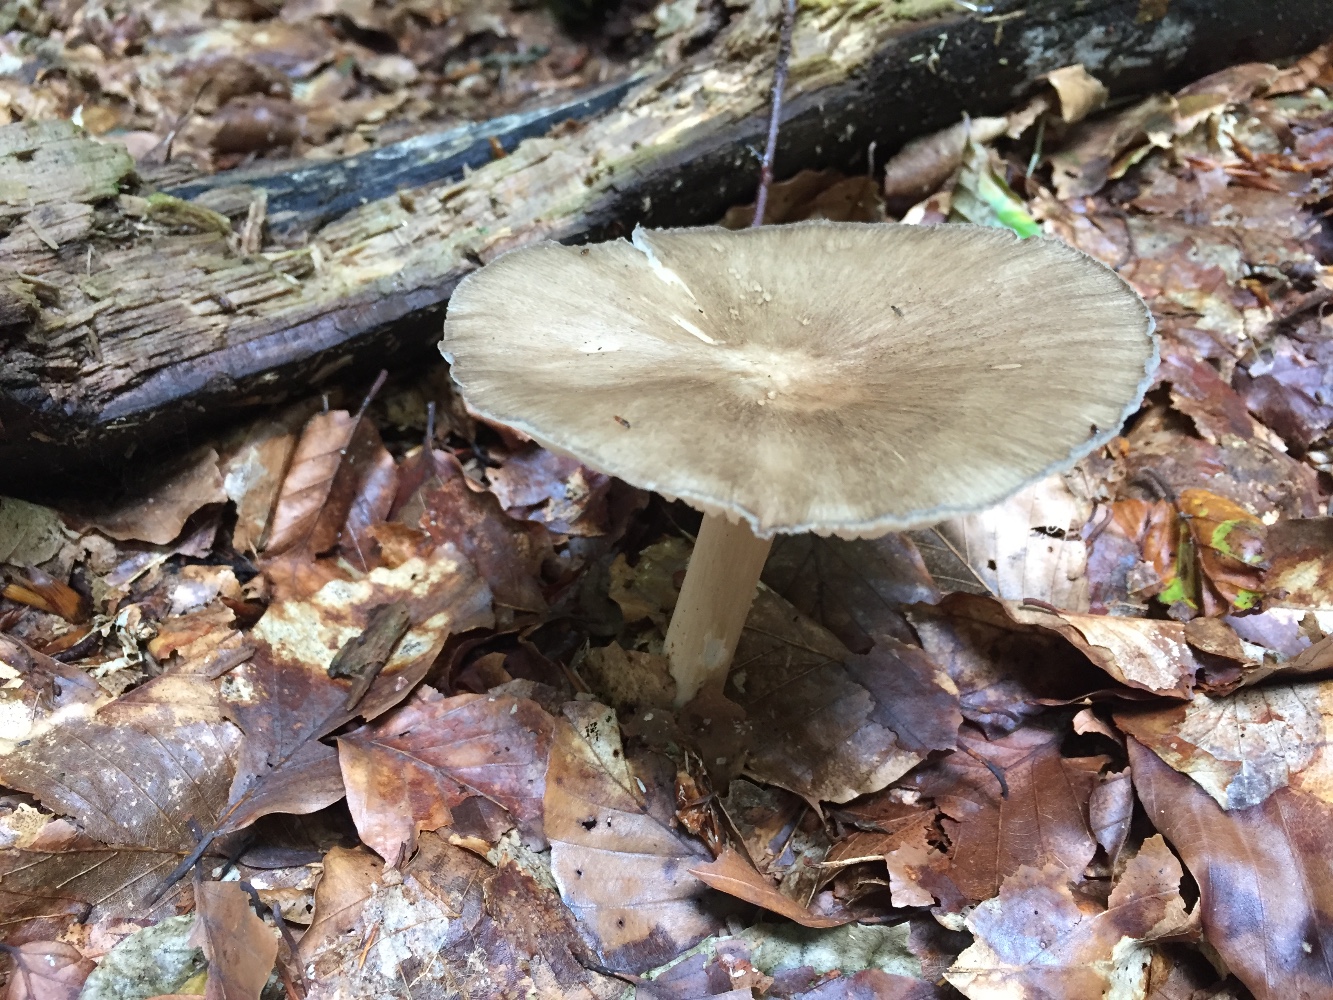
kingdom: Fungi
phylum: Basidiomycota
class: Agaricomycetes
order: Agaricales
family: Tricholomataceae
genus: Megacollybia
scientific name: Megacollybia platyphylla
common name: bredbladet væbnerhat
